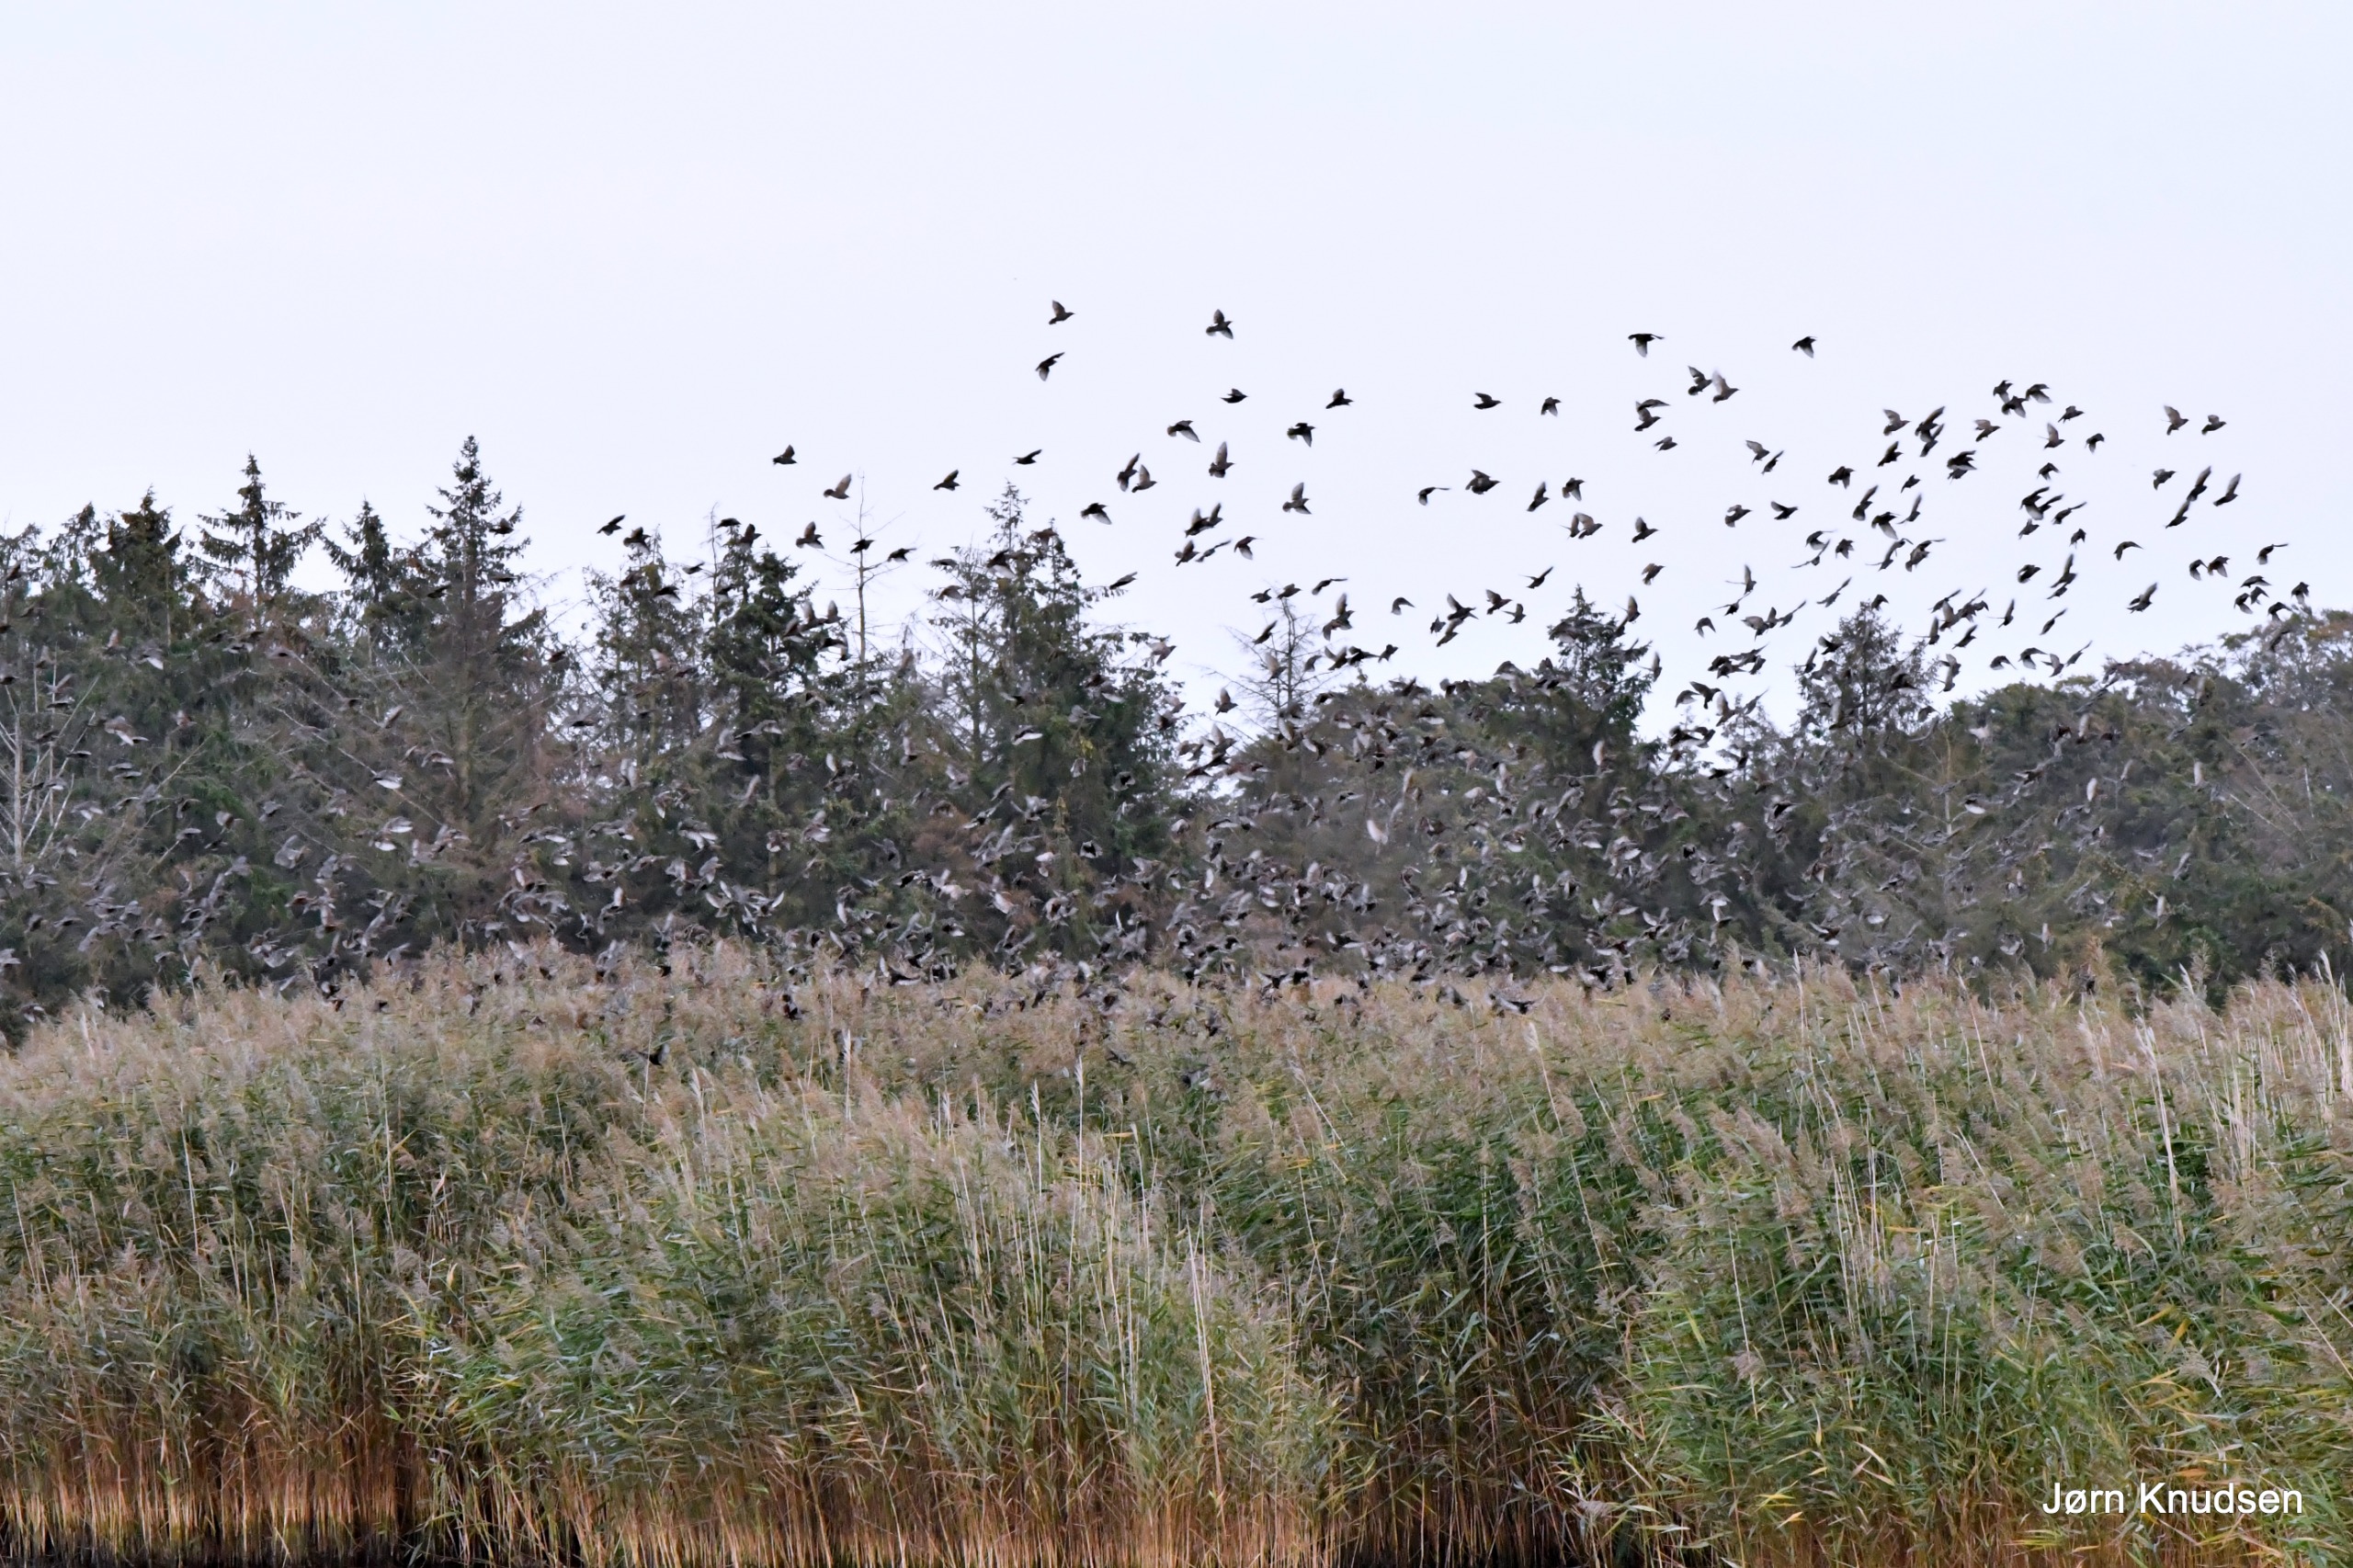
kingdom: Animalia
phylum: Chordata
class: Aves
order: Passeriformes
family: Sturnidae
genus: Sturnus
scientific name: Sturnus vulgaris
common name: Stær
